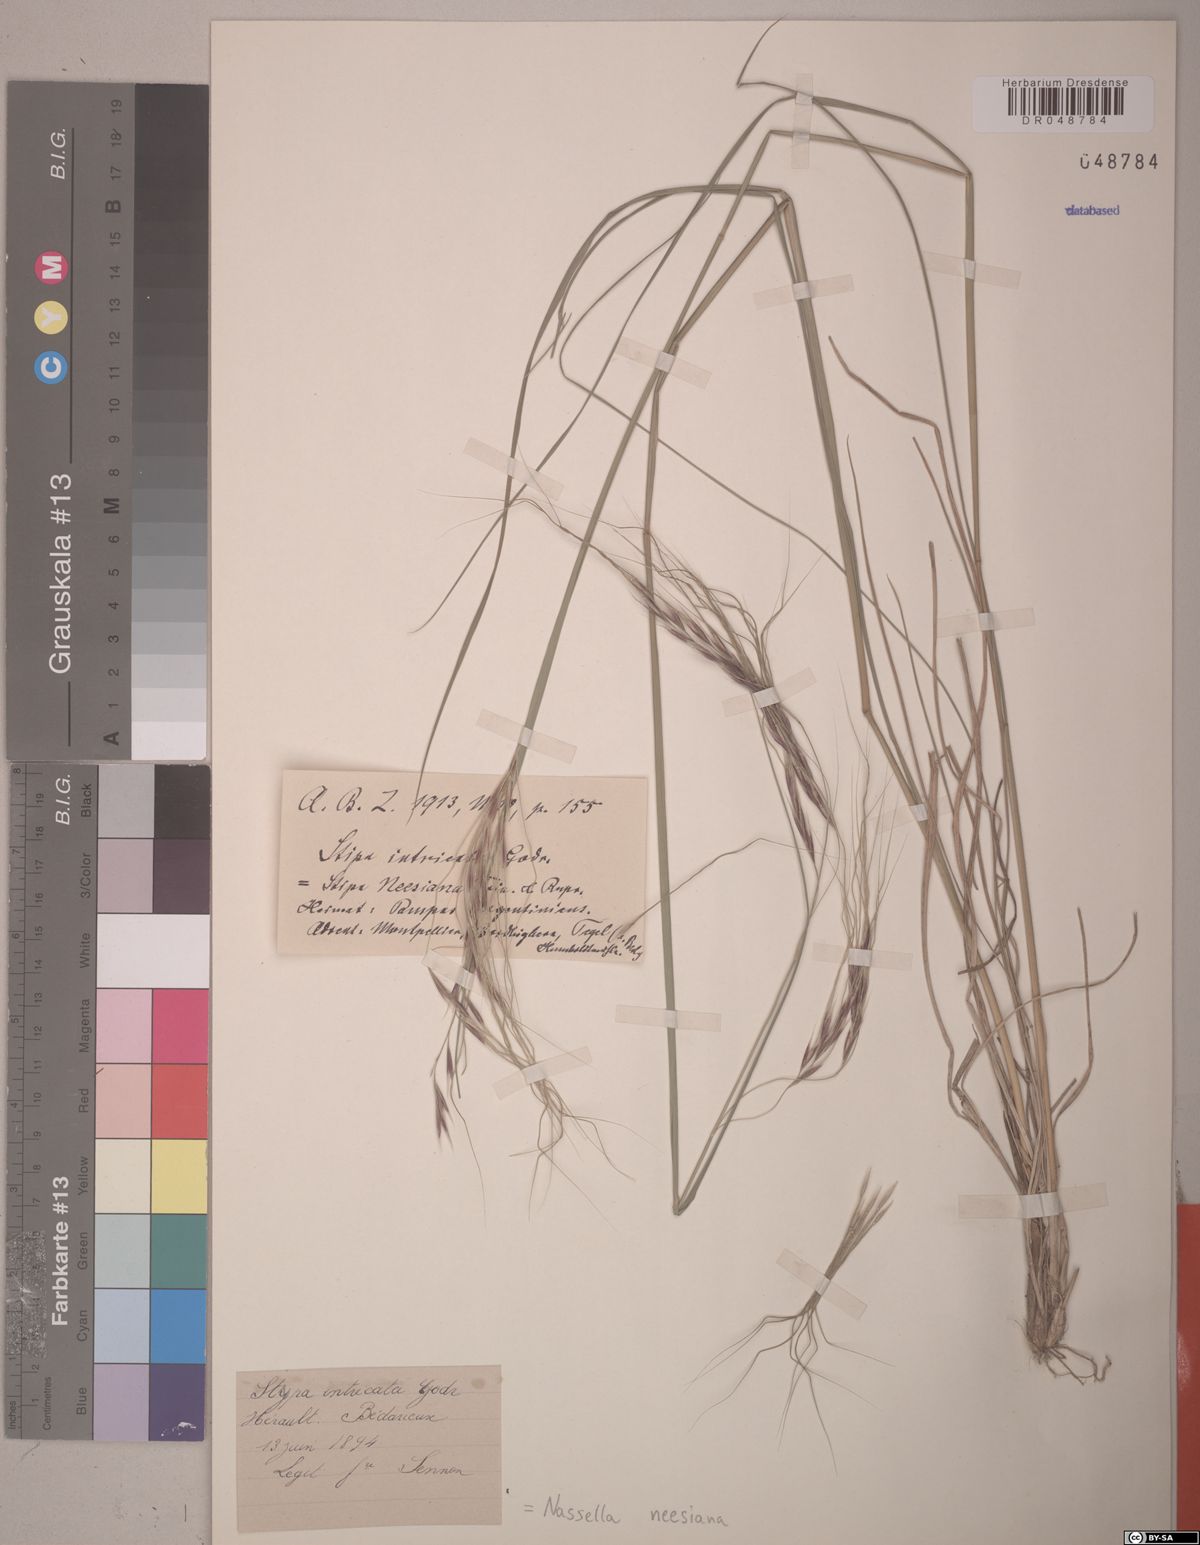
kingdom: Plantae
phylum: Tracheophyta
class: Liliopsida
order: Poales
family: Poaceae
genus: Nassella
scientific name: Nassella neesiana
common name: American needle-grass
